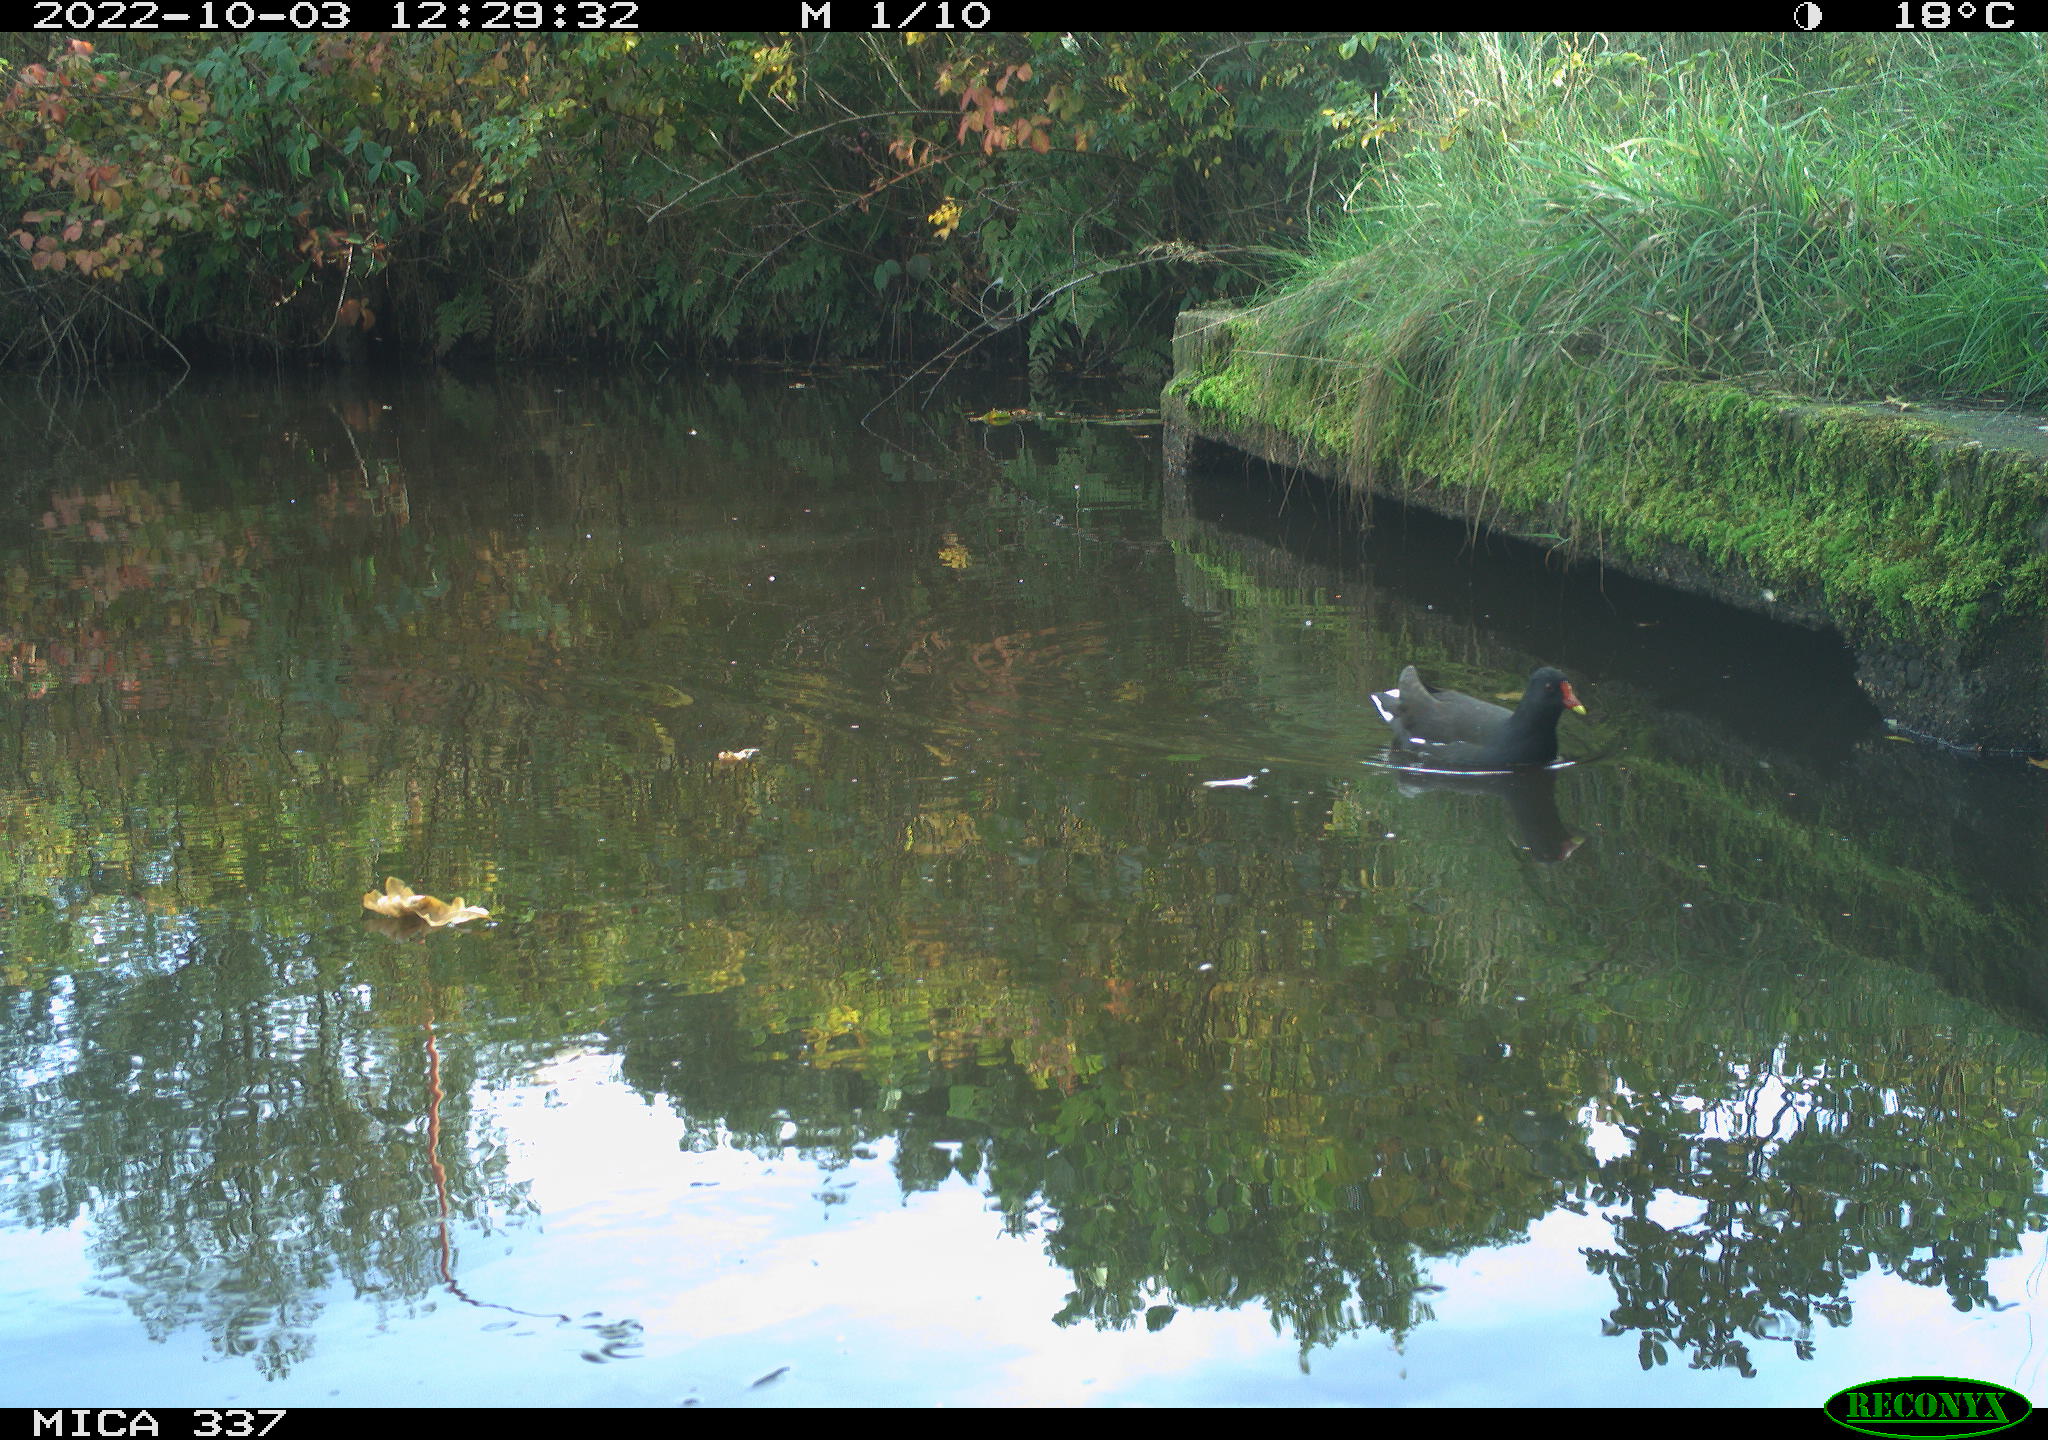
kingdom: Animalia
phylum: Chordata
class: Aves
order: Gruiformes
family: Rallidae
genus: Gallinula
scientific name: Gallinula chloropus
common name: Common moorhen
